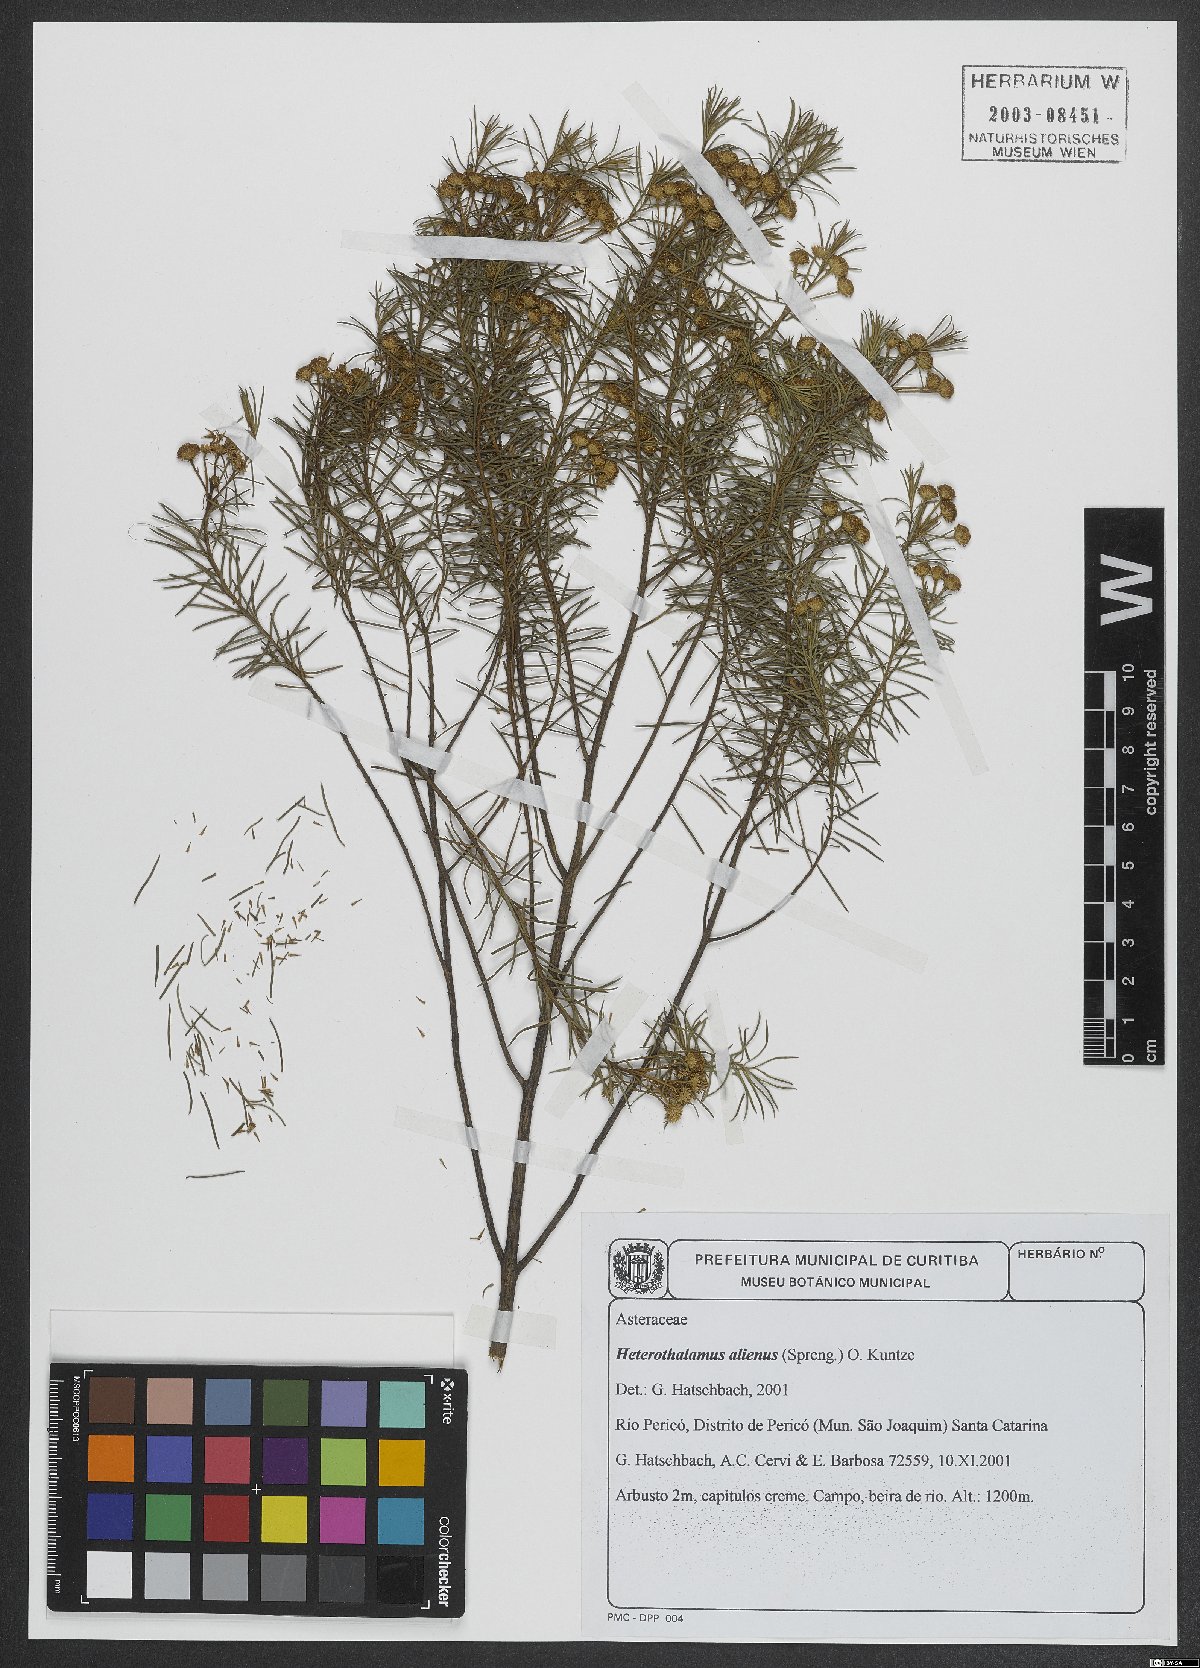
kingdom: Plantae
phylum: Tracheophyta
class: Magnoliopsida
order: Asterales
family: Asteraceae
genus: Baccharis
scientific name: Baccharis aliena
